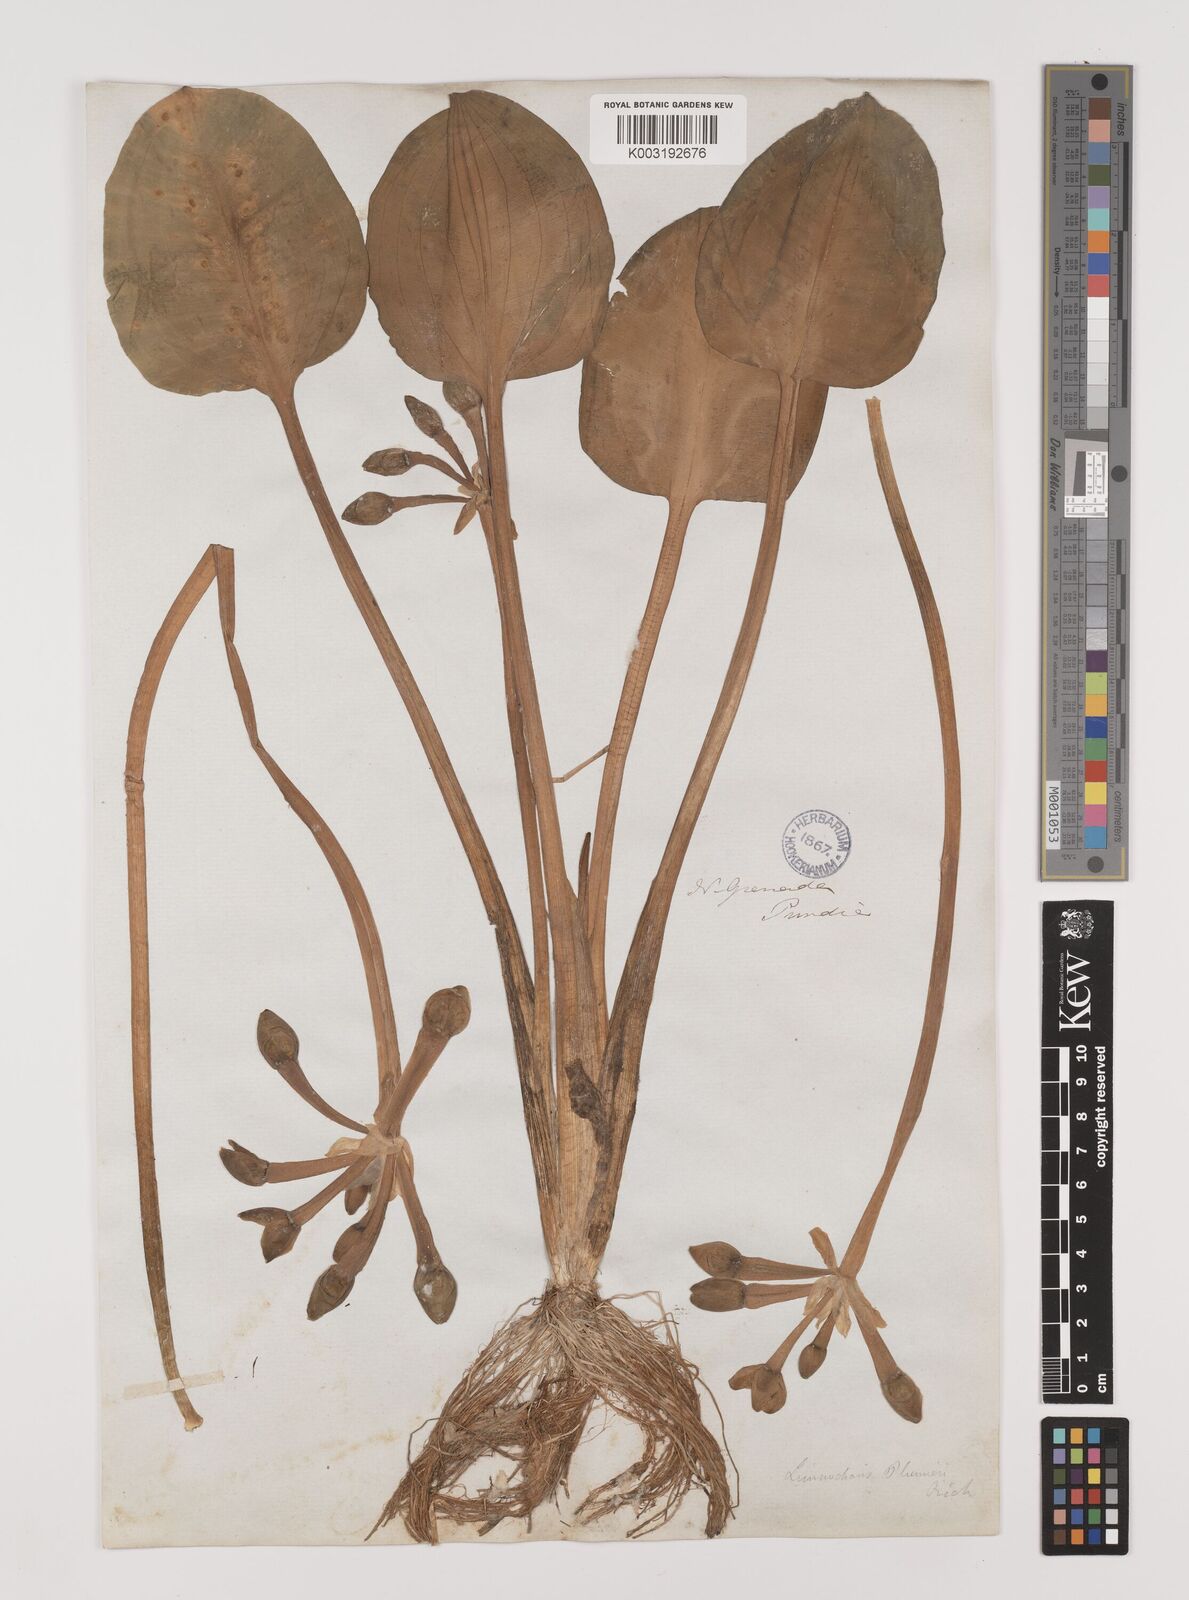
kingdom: Plantae
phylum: Tracheophyta
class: Liliopsida
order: Alismatales
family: Alismataceae
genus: Limnocharis
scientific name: Limnocharis flava
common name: Sawah-flower-rush
